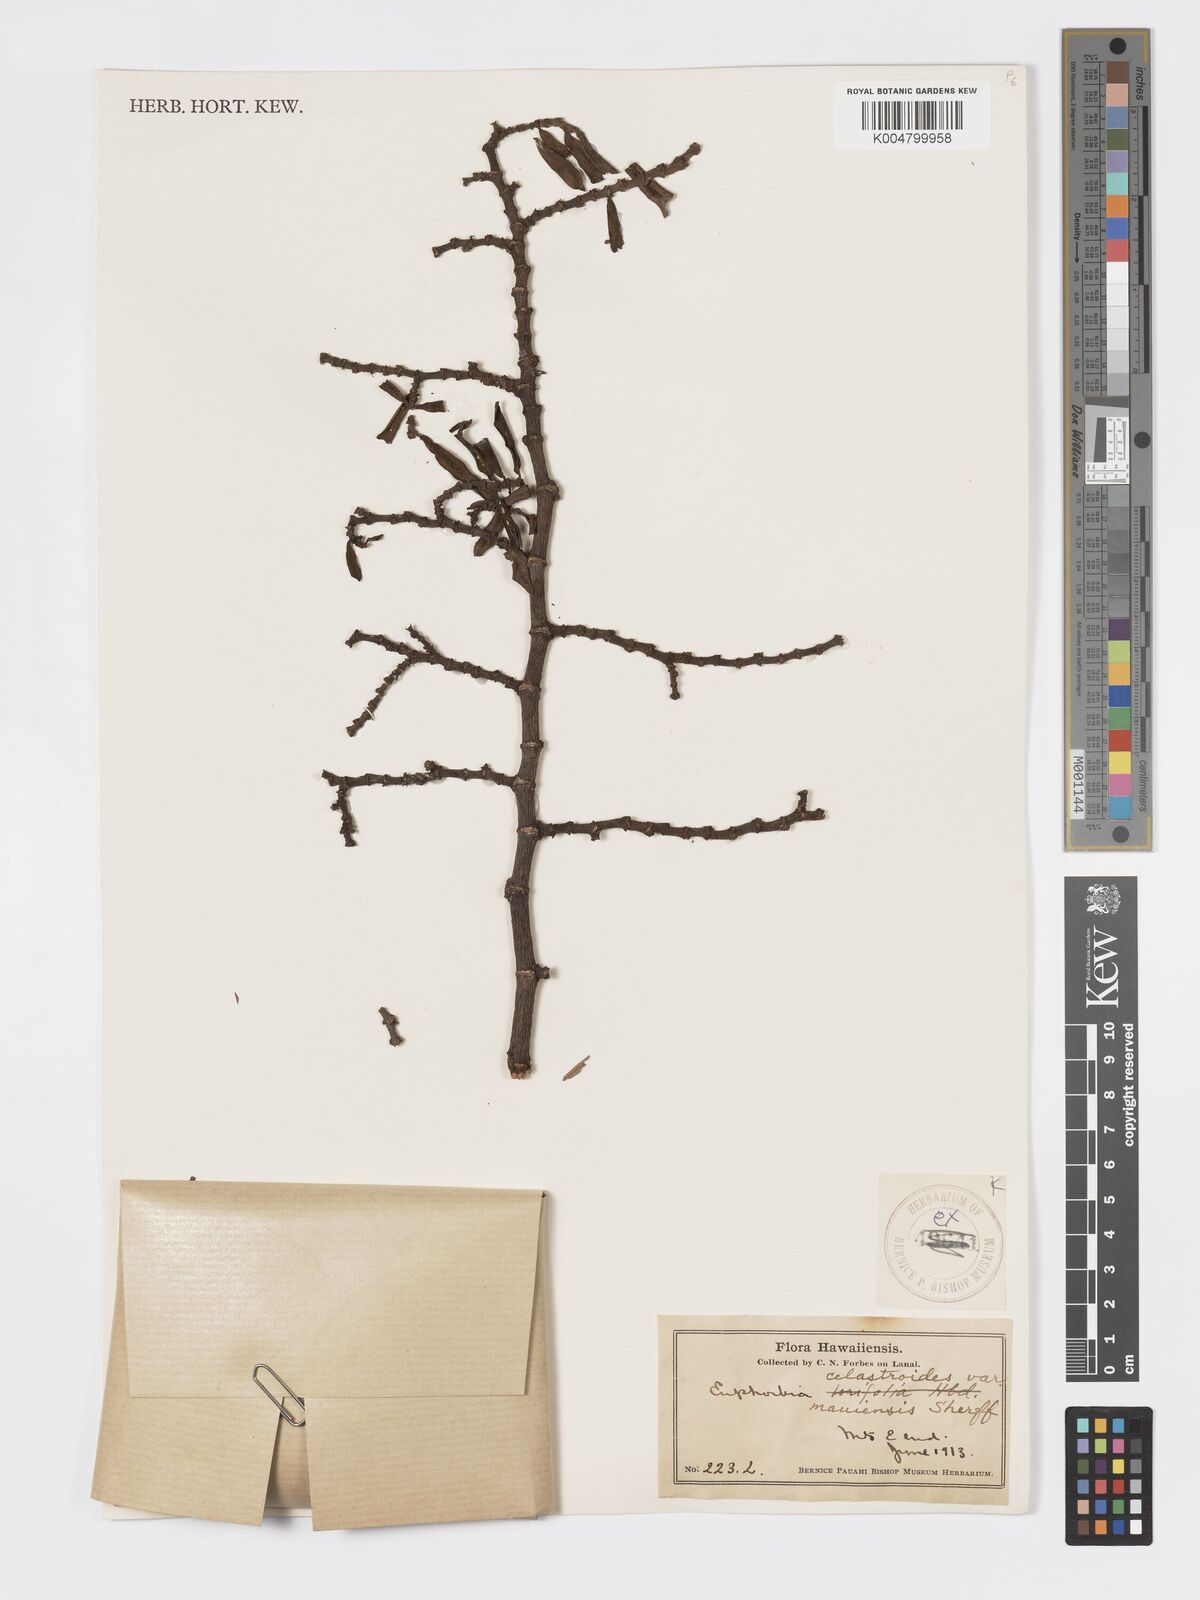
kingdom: Plantae
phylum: Tracheophyta
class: Magnoliopsida
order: Malpighiales
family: Euphorbiaceae
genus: Euphorbia
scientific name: Euphorbia celastroides
